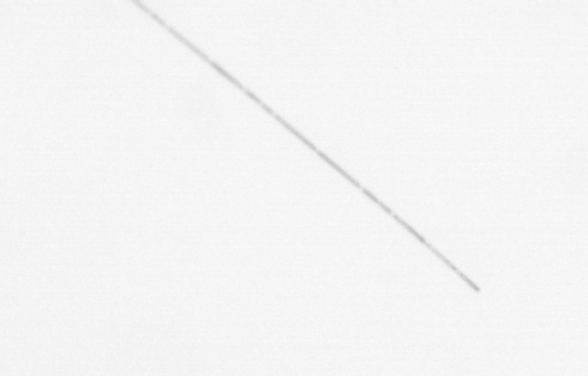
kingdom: Chromista
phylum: Ochrophyta
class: Bacillariophyceae
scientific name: Bacillariophyceae
